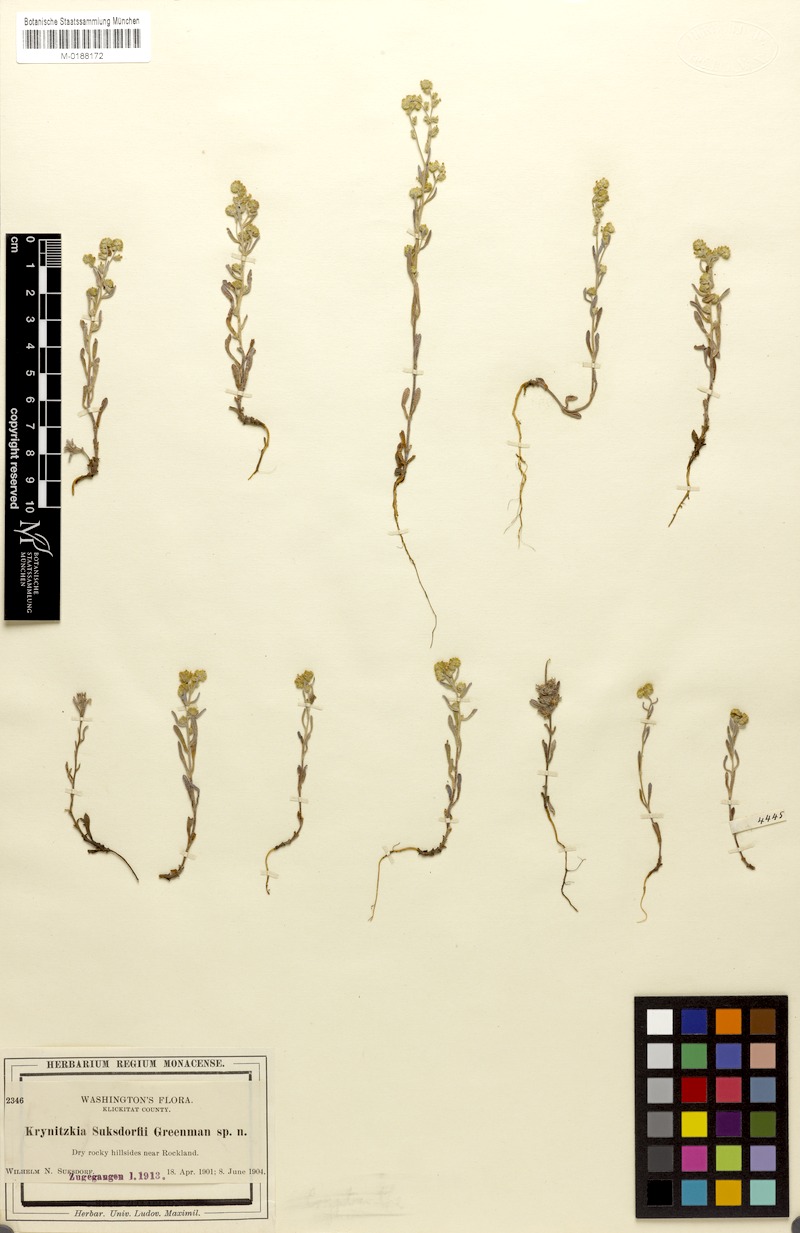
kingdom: Plantae
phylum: Tracheophyta
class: Magnoliopsida
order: Boraginales
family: Boraginaceae
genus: Cryptantha
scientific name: Cryptantha flaccida
